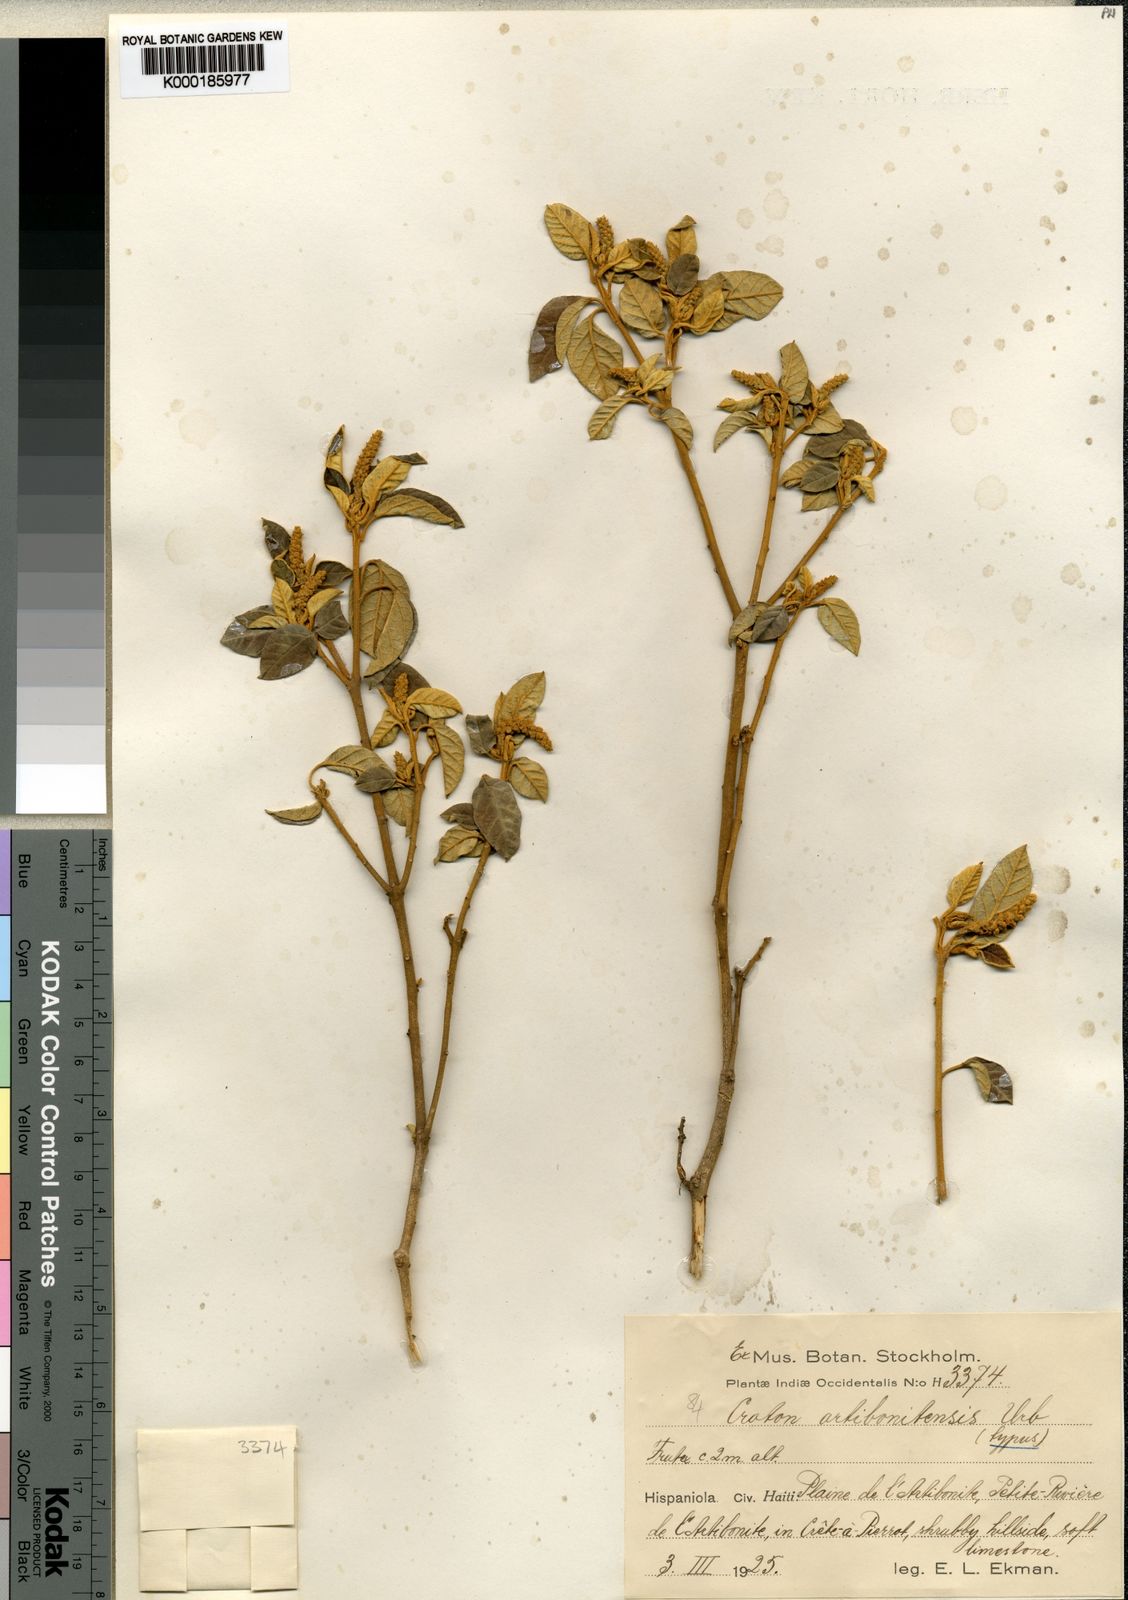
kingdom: Plantae
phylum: Tracheophyta
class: Magnoliopsida
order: Malpighiales
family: Euphorbiaceae
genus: Croton
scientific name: Croton artibonitensis
